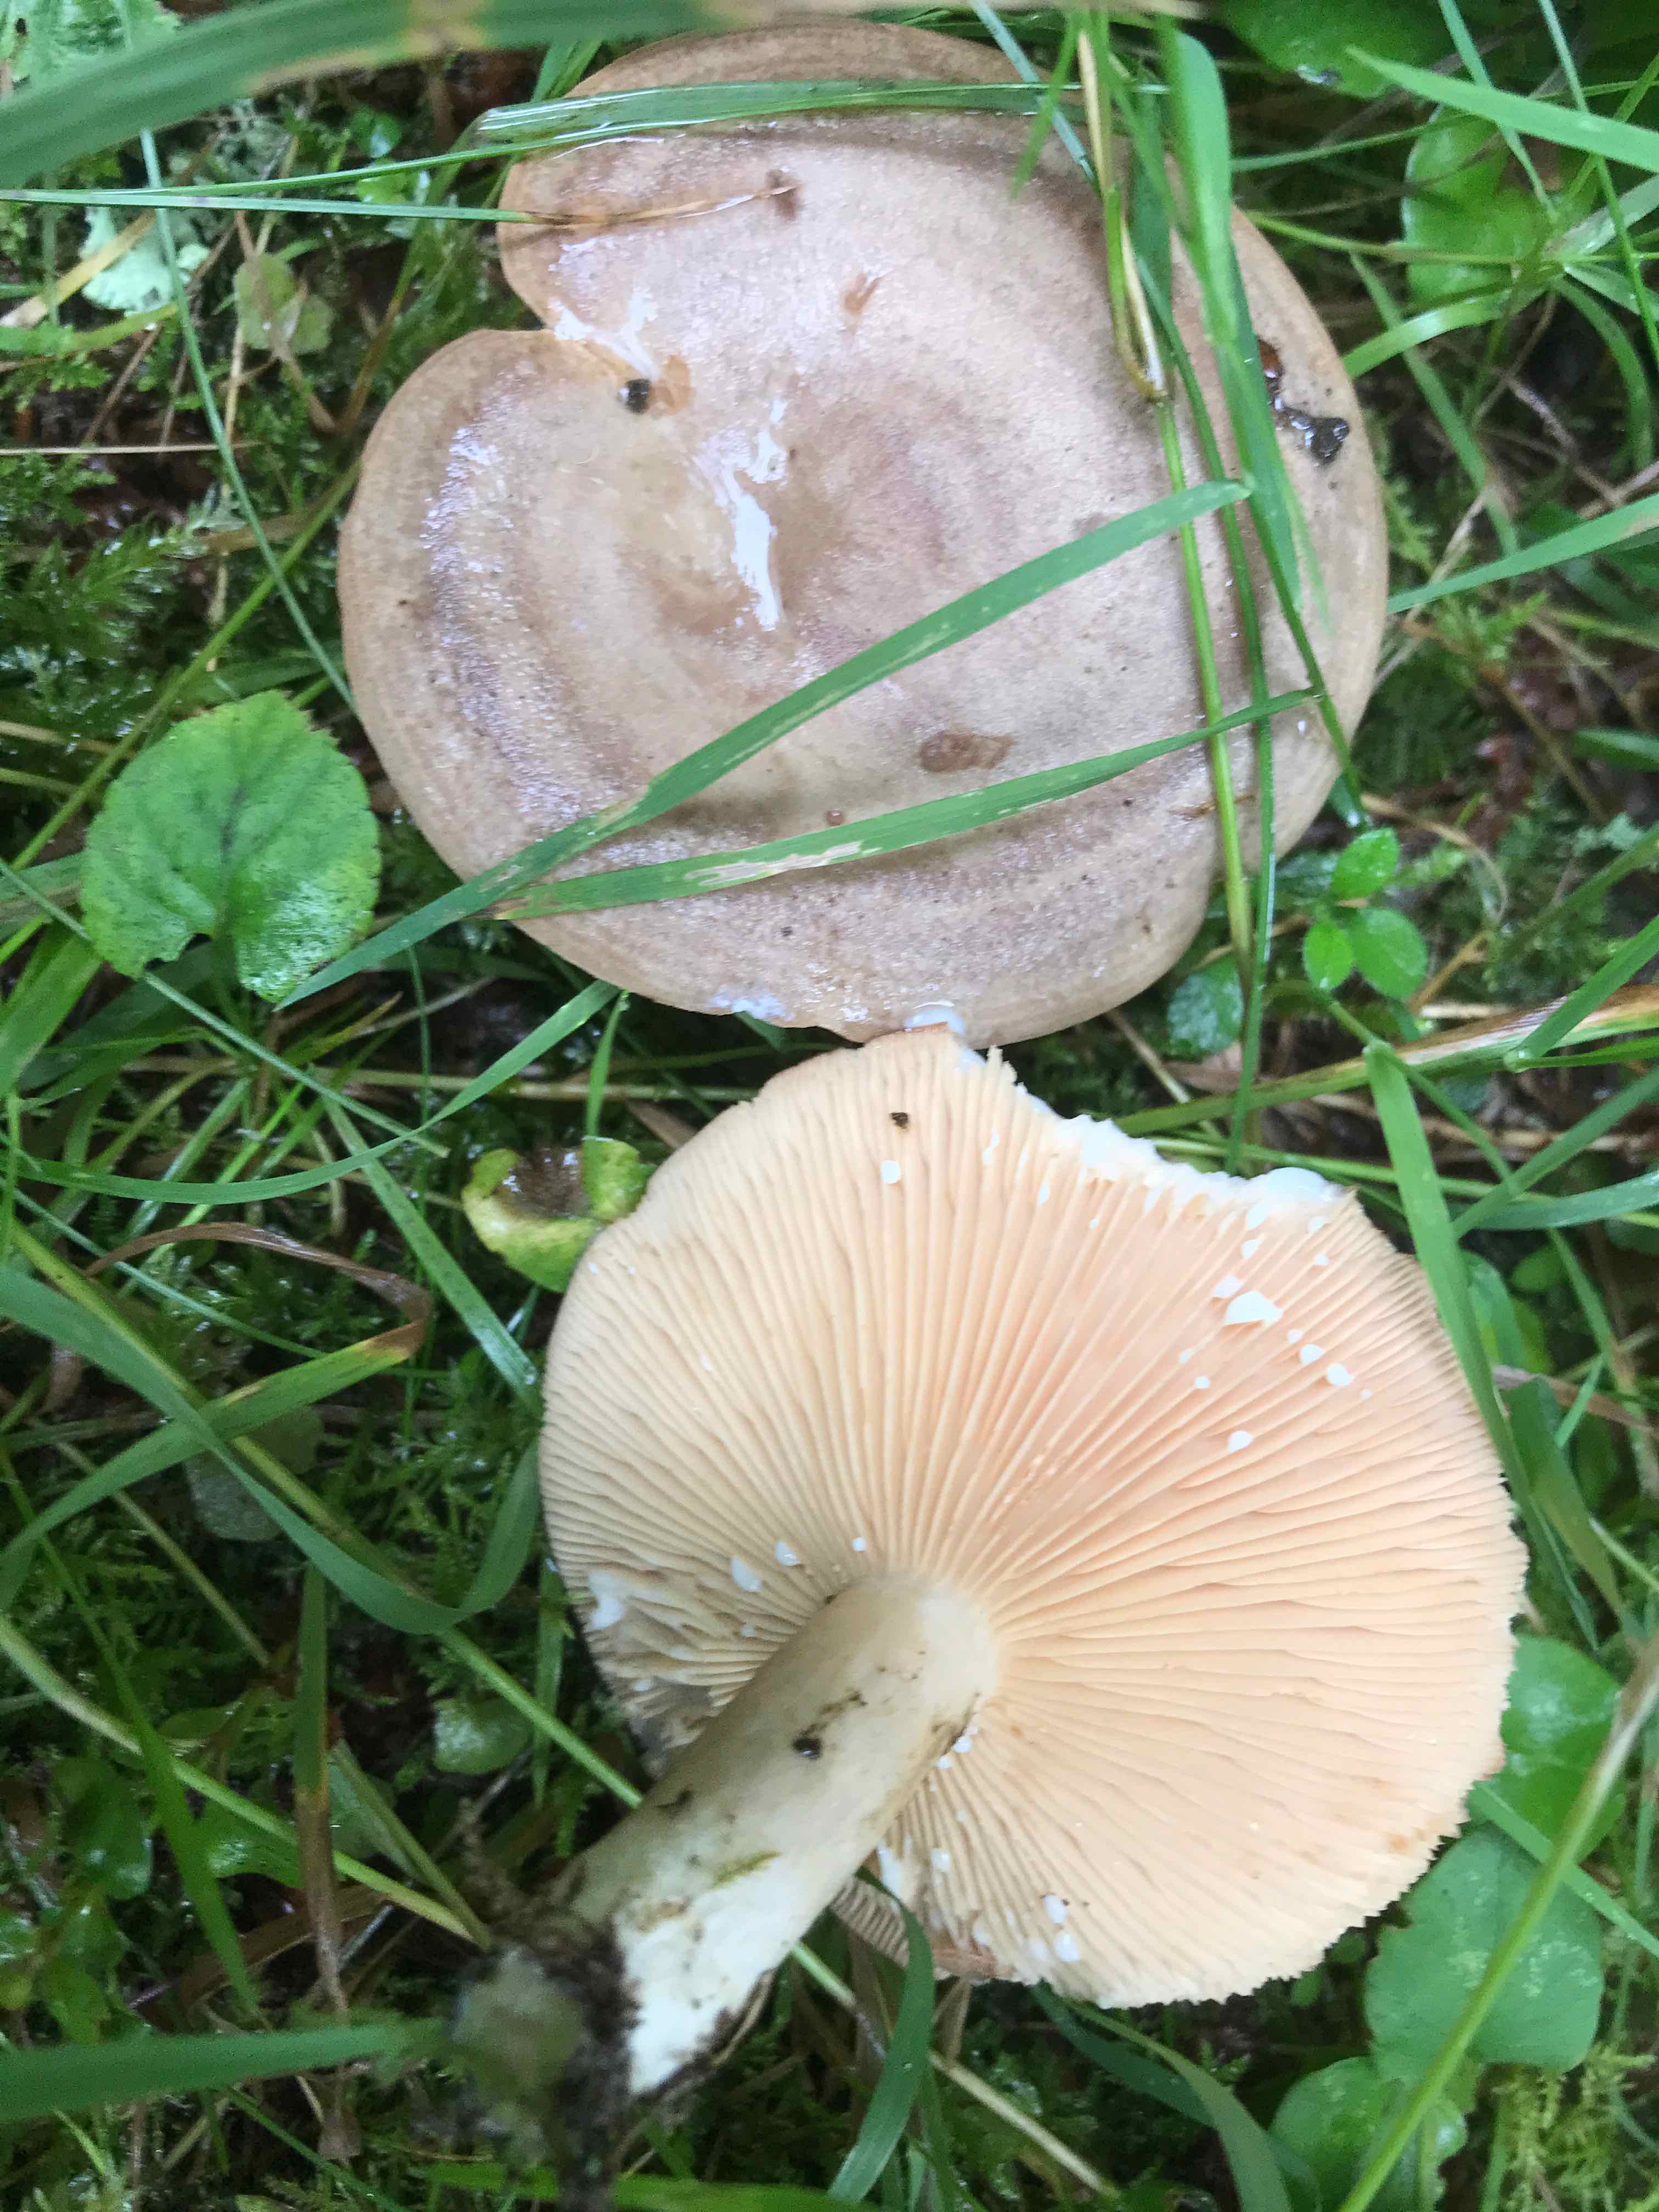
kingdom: Fungi
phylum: Basidiomycota
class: Agaricomycetes
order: Russulales
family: Russulaceae
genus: Lactarius
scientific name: Lactarius
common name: mælkehat
